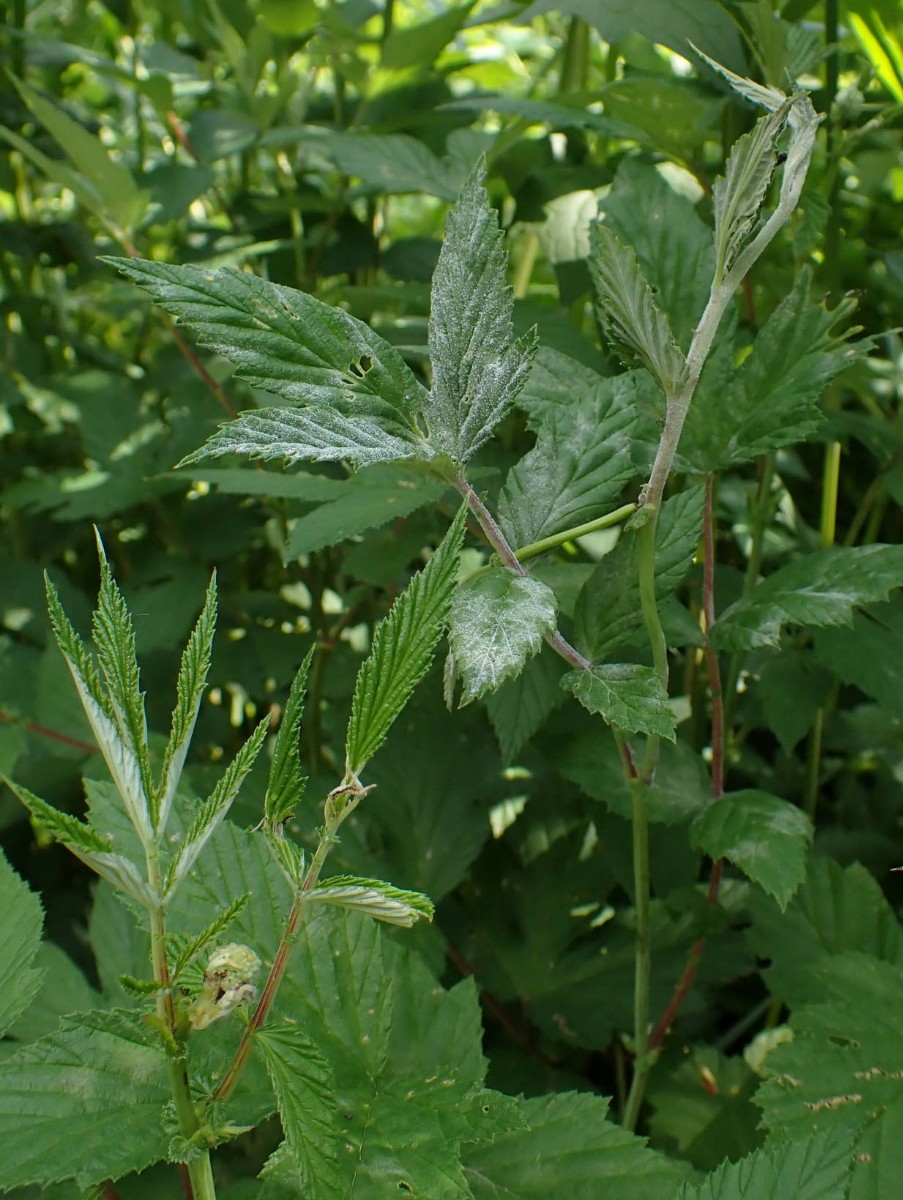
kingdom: Fungi
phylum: Ascomycota
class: Leotiomycetes
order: Helotiales
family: Erysiphaceae
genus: Podosphaera
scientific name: Podosphaera filipendulae
